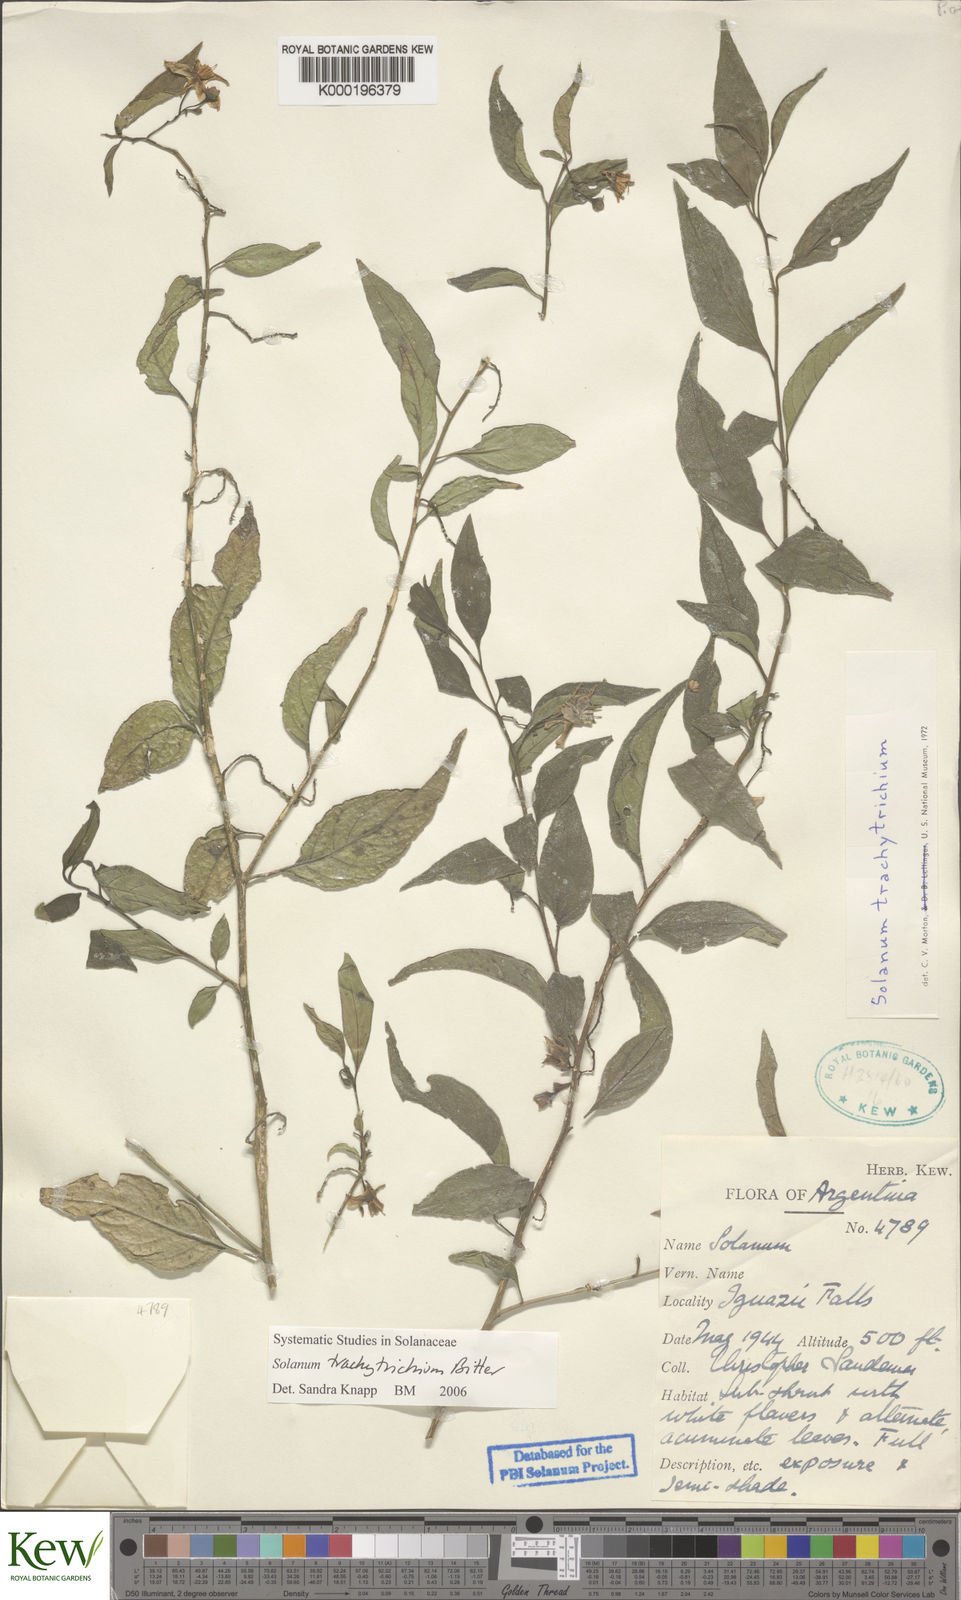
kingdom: Plantae
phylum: Tracheophyta
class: Magnoliopsida
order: Solanales
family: Solanaceae
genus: Solanum
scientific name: Solanum trachytrichium
